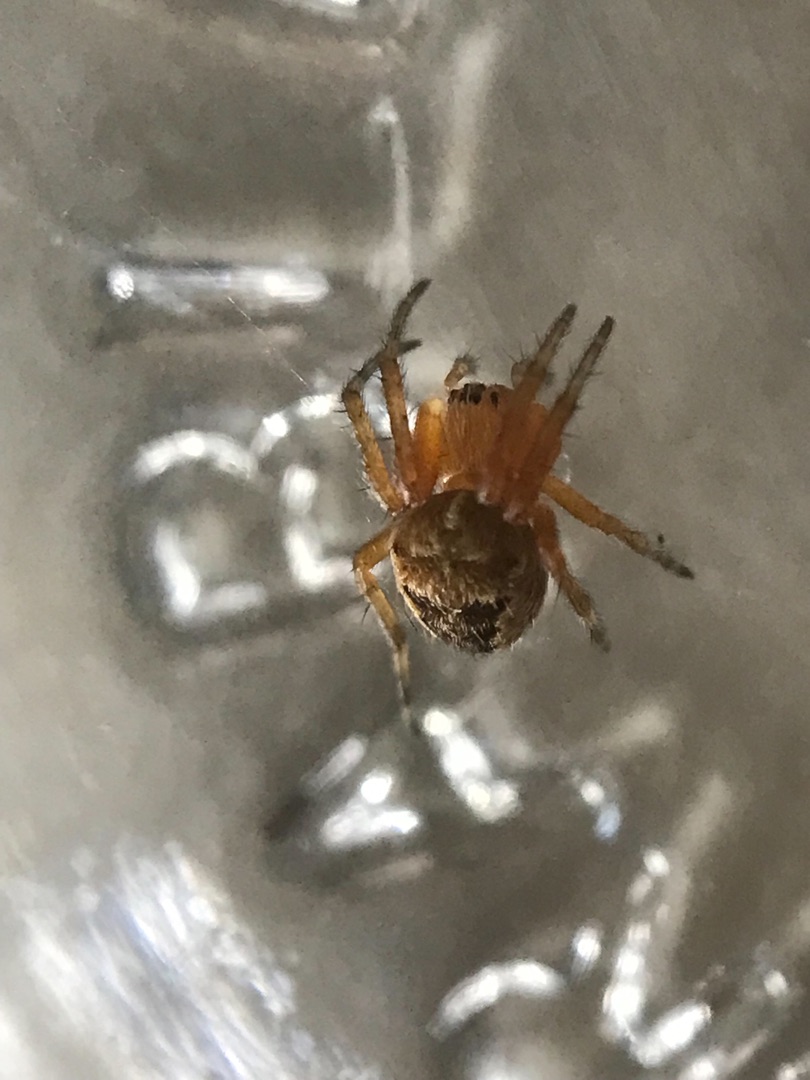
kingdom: Animalia
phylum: Arthropoda
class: Arachnida
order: Araneae
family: Araneidae
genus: Araneus
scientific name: Araneus diadematus
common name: Korsedderkop
